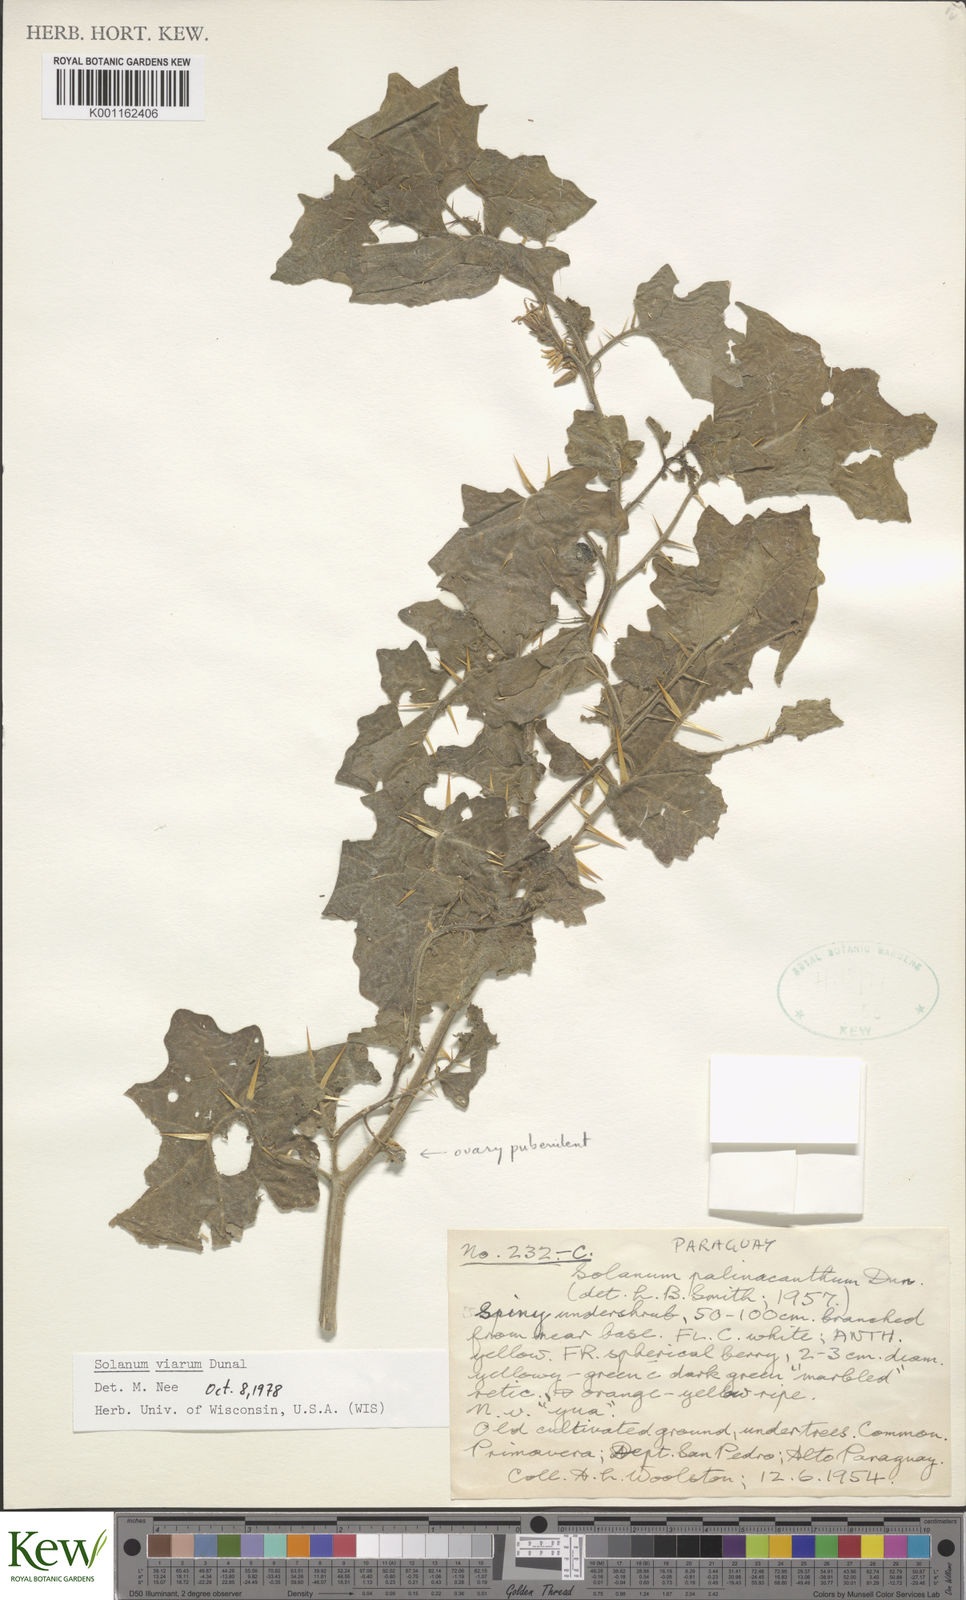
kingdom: Plantae
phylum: Tracheophyta
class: Magnoliopsida
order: Solanales
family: Solanaceae
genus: Solanum
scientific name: Solanum viarum
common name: Tropical soda apple
